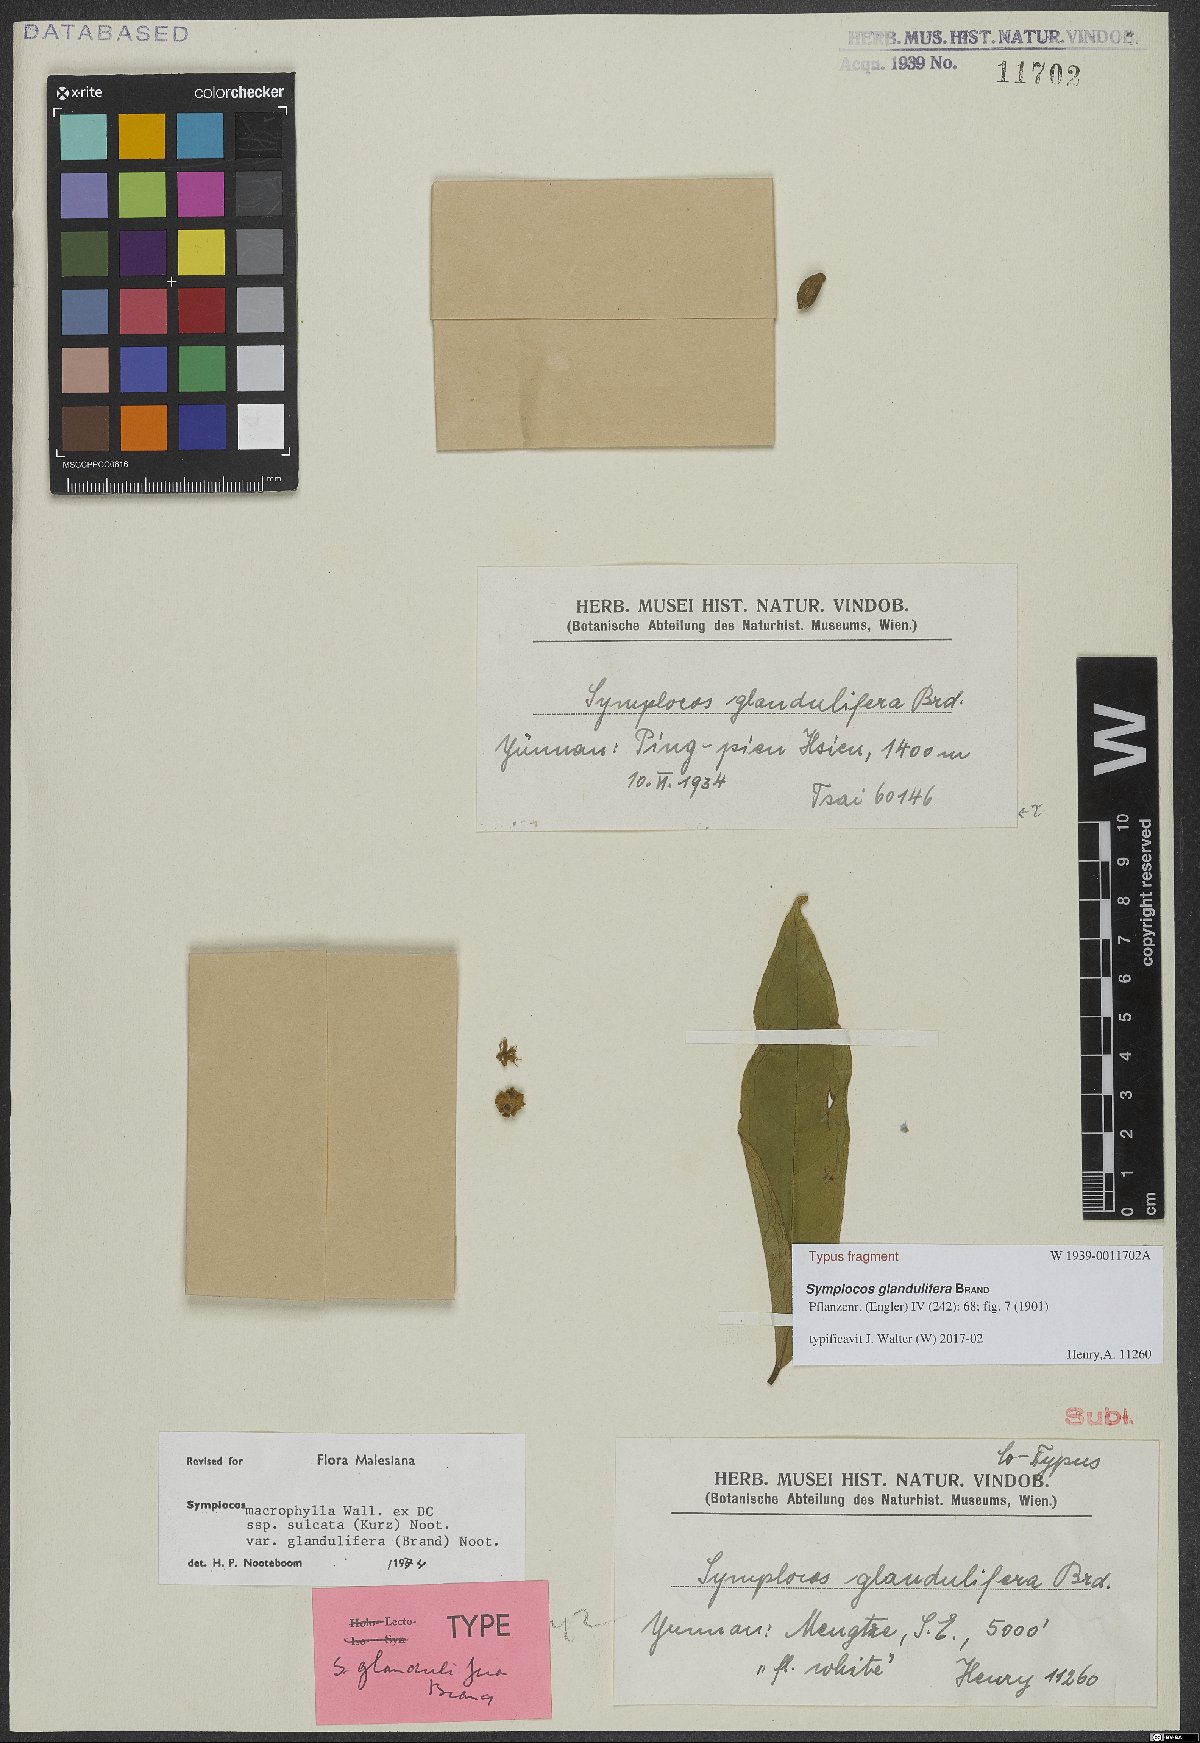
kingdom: Plantae
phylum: Tracheophyta
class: Magnoliopsida
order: Ericales
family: Symplocaceae
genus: Symplocos
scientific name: Symplocos glandulifera
